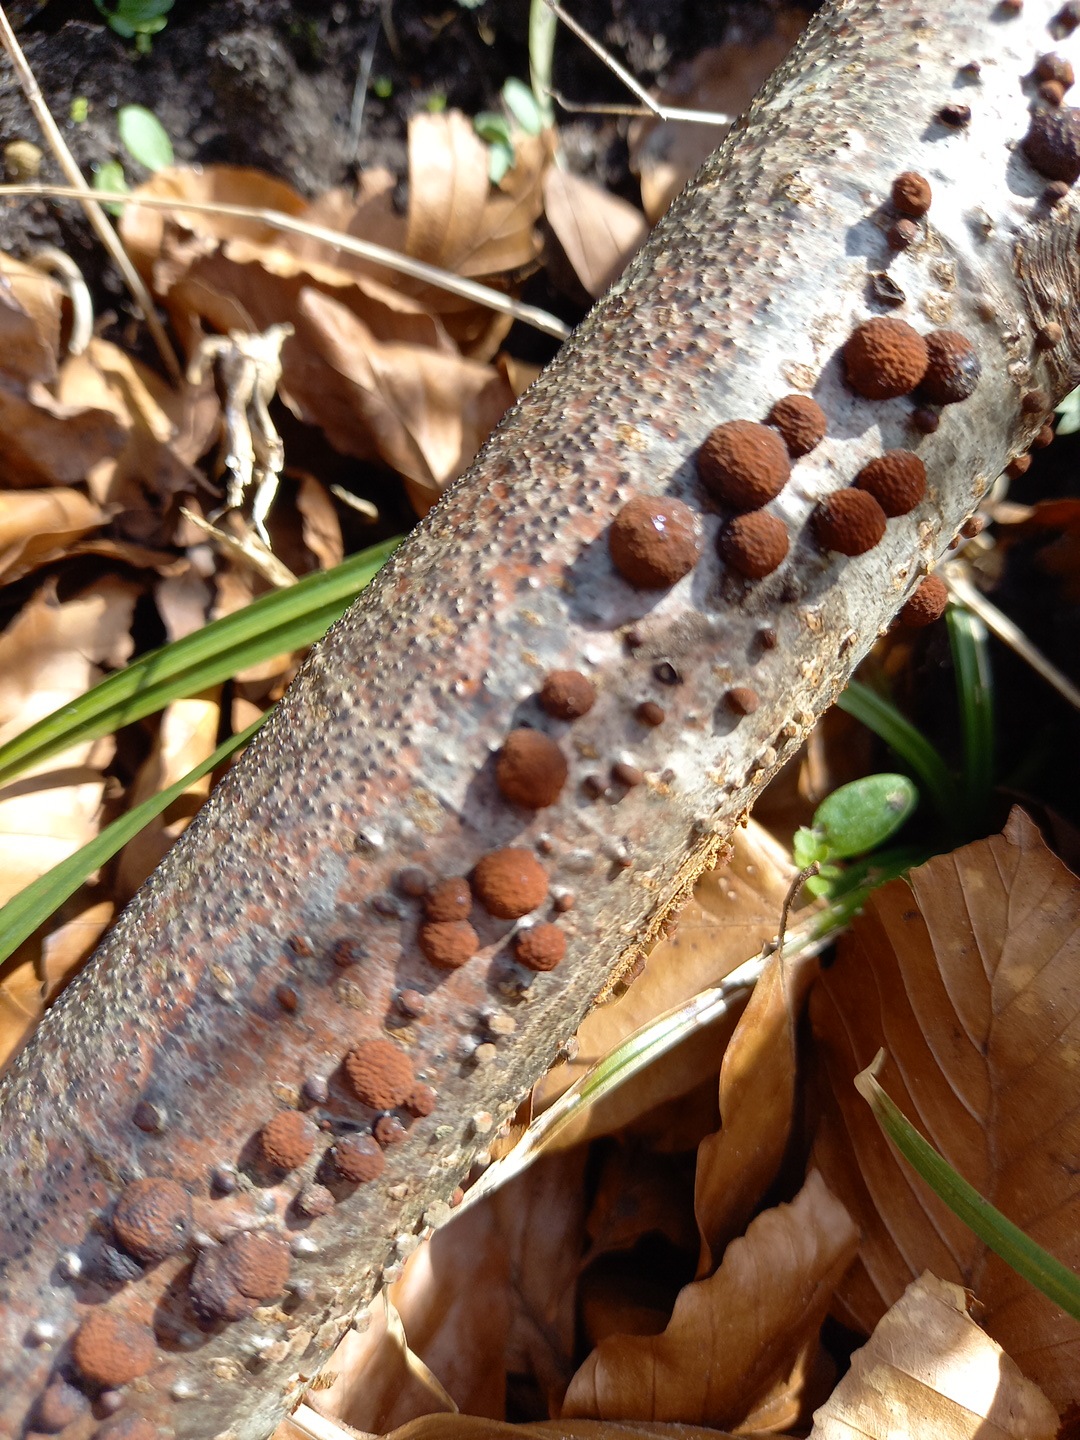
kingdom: Fungi
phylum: Ascomycota
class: Sordariomycetes
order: Xylariales
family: Hypoxylaceae
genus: Hypoxylon
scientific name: Hypoxylon fragiforme
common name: kuljordbær
